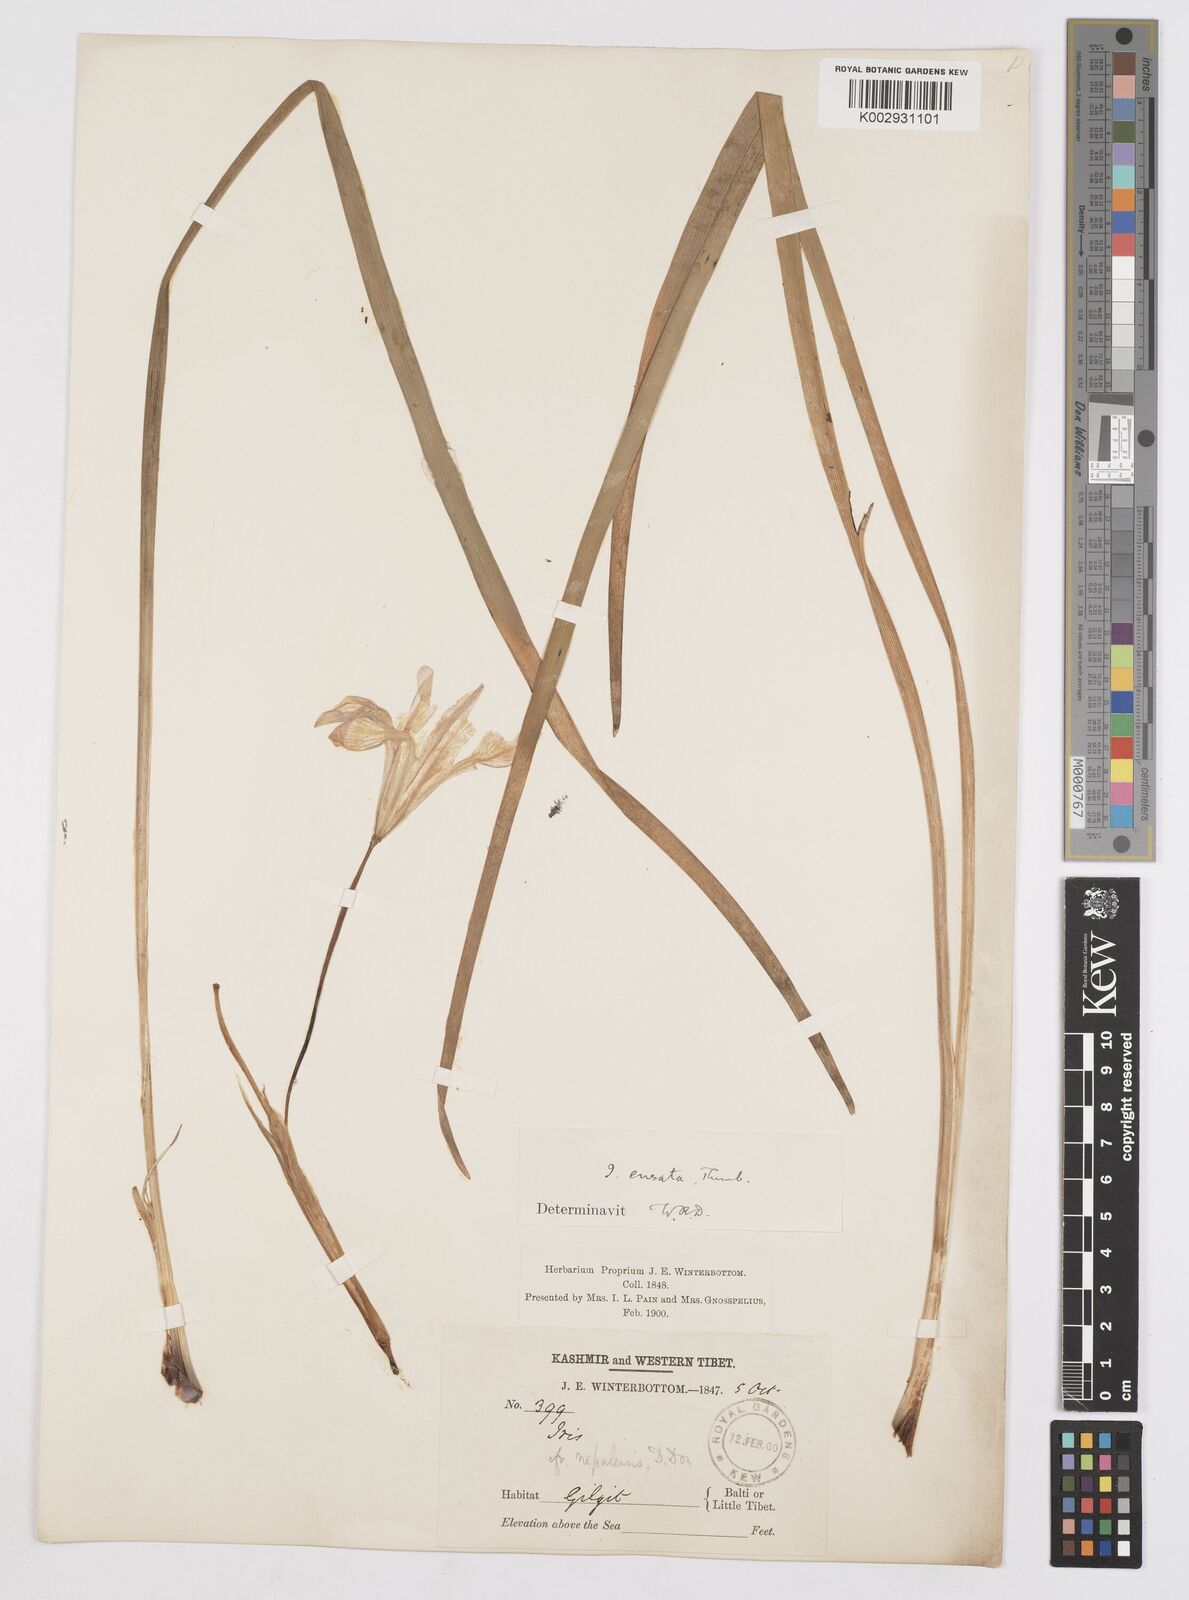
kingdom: Plantae
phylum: Tracheophyta
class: Liliopsida
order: Asparagales
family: Iridaceae
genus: Iris
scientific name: Iris ensata
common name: Beaked iris
